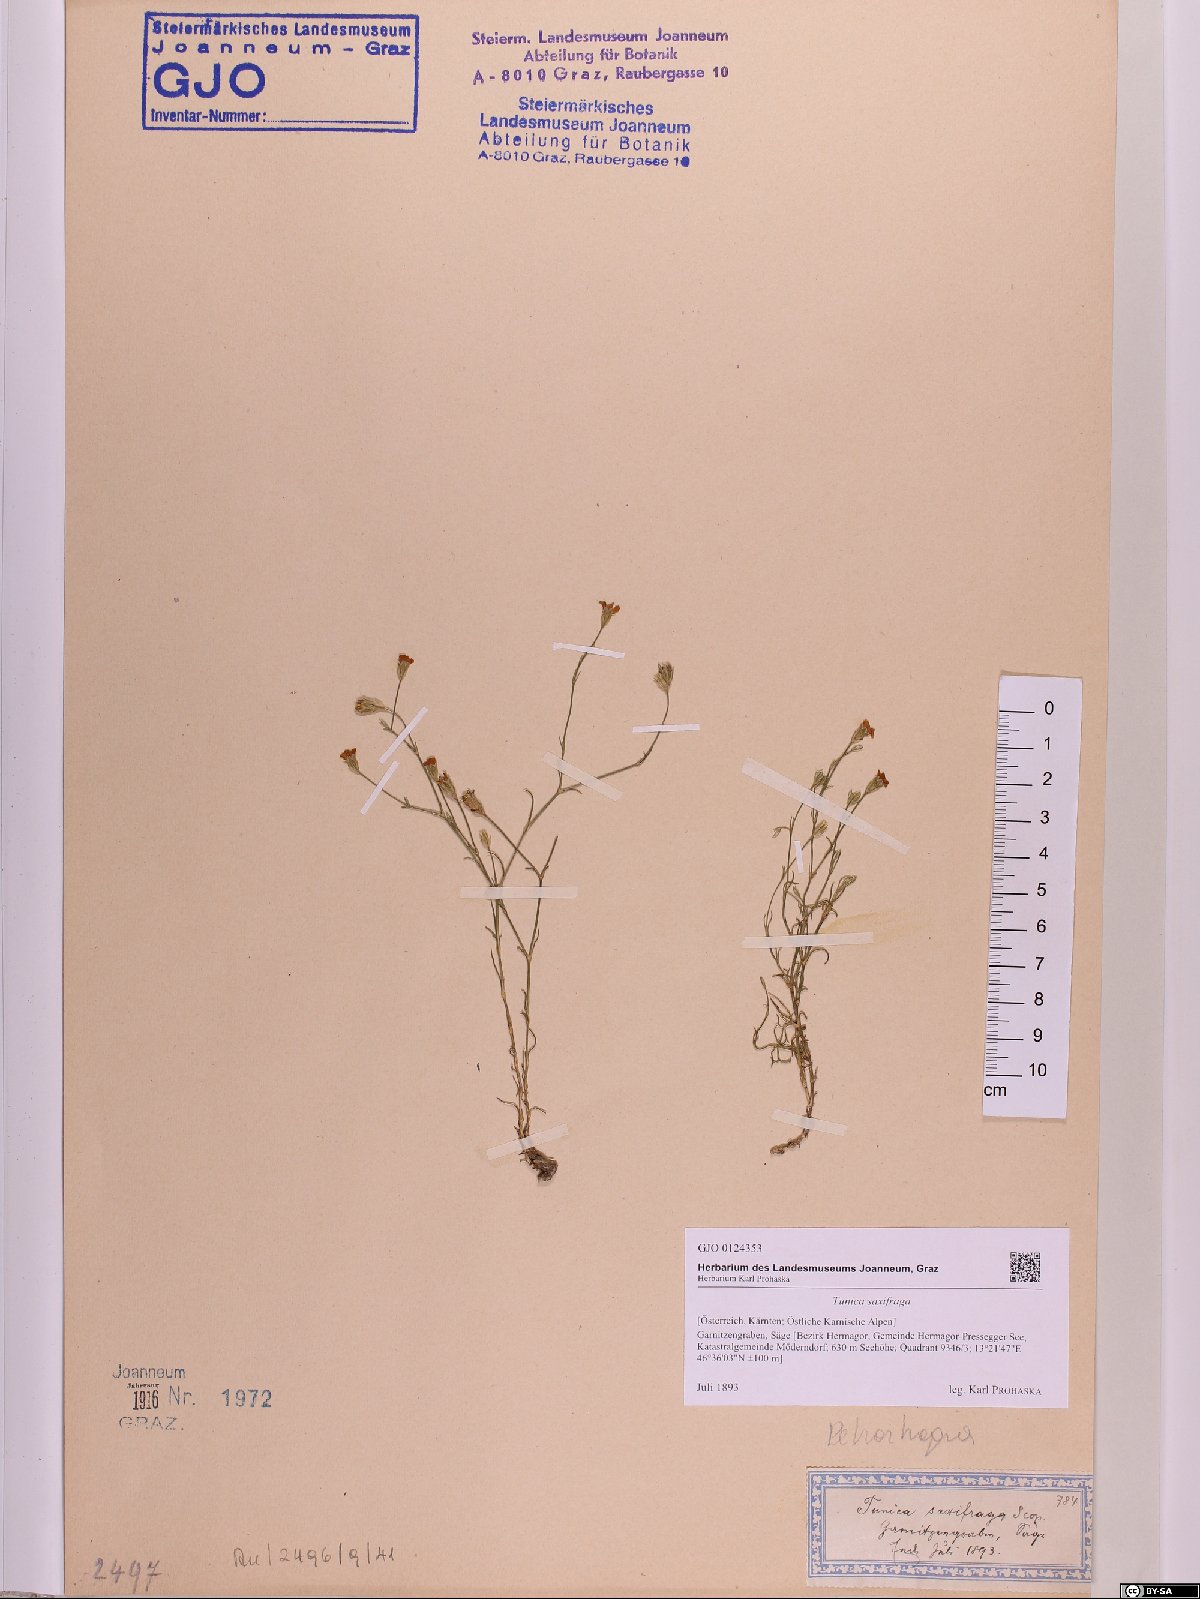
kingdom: Plantae
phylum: Tracheophyta
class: Magnoliopsida
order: Caryophyllales
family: Caryophyllaceae
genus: Petrorhagia
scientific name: Petrorhagia saxifraga
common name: Tunicflower
